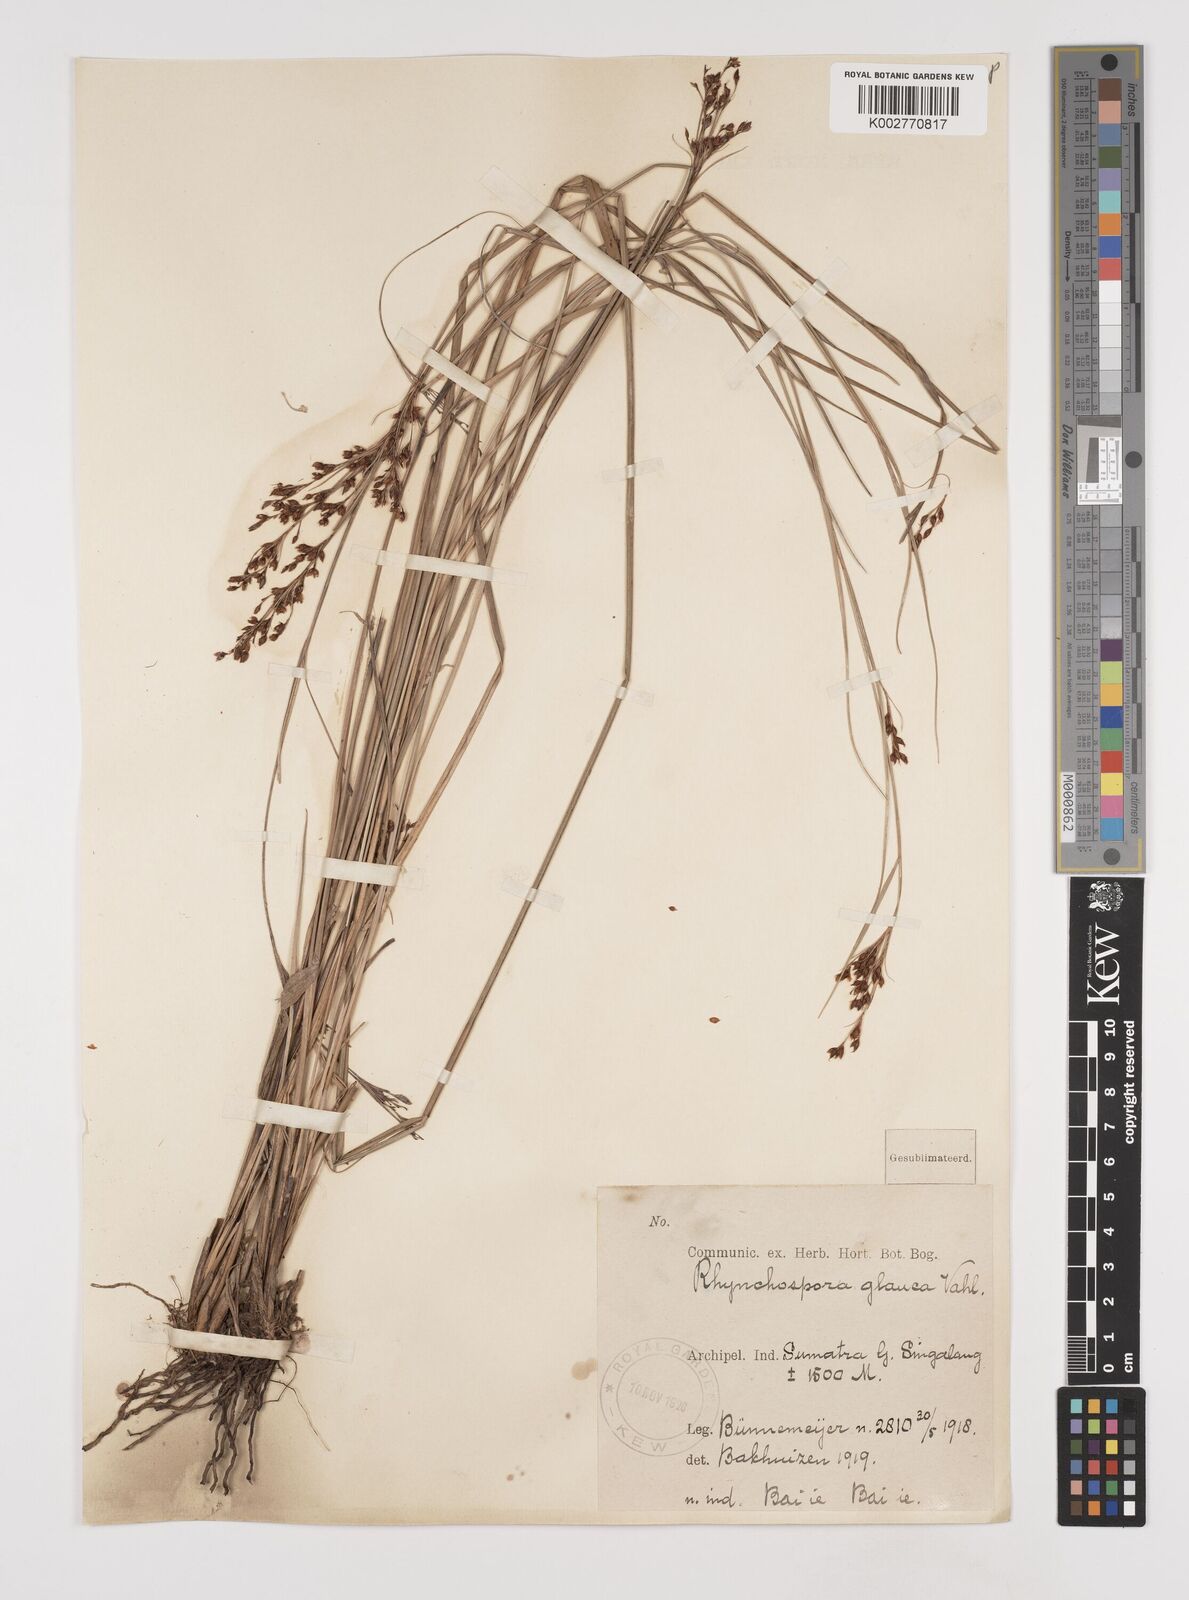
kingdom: Plantae
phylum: Tracheophyta
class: Liliopsida
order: Poales
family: Cyperaceae
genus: Rhynchospora
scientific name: Rhynchospora rugosa
